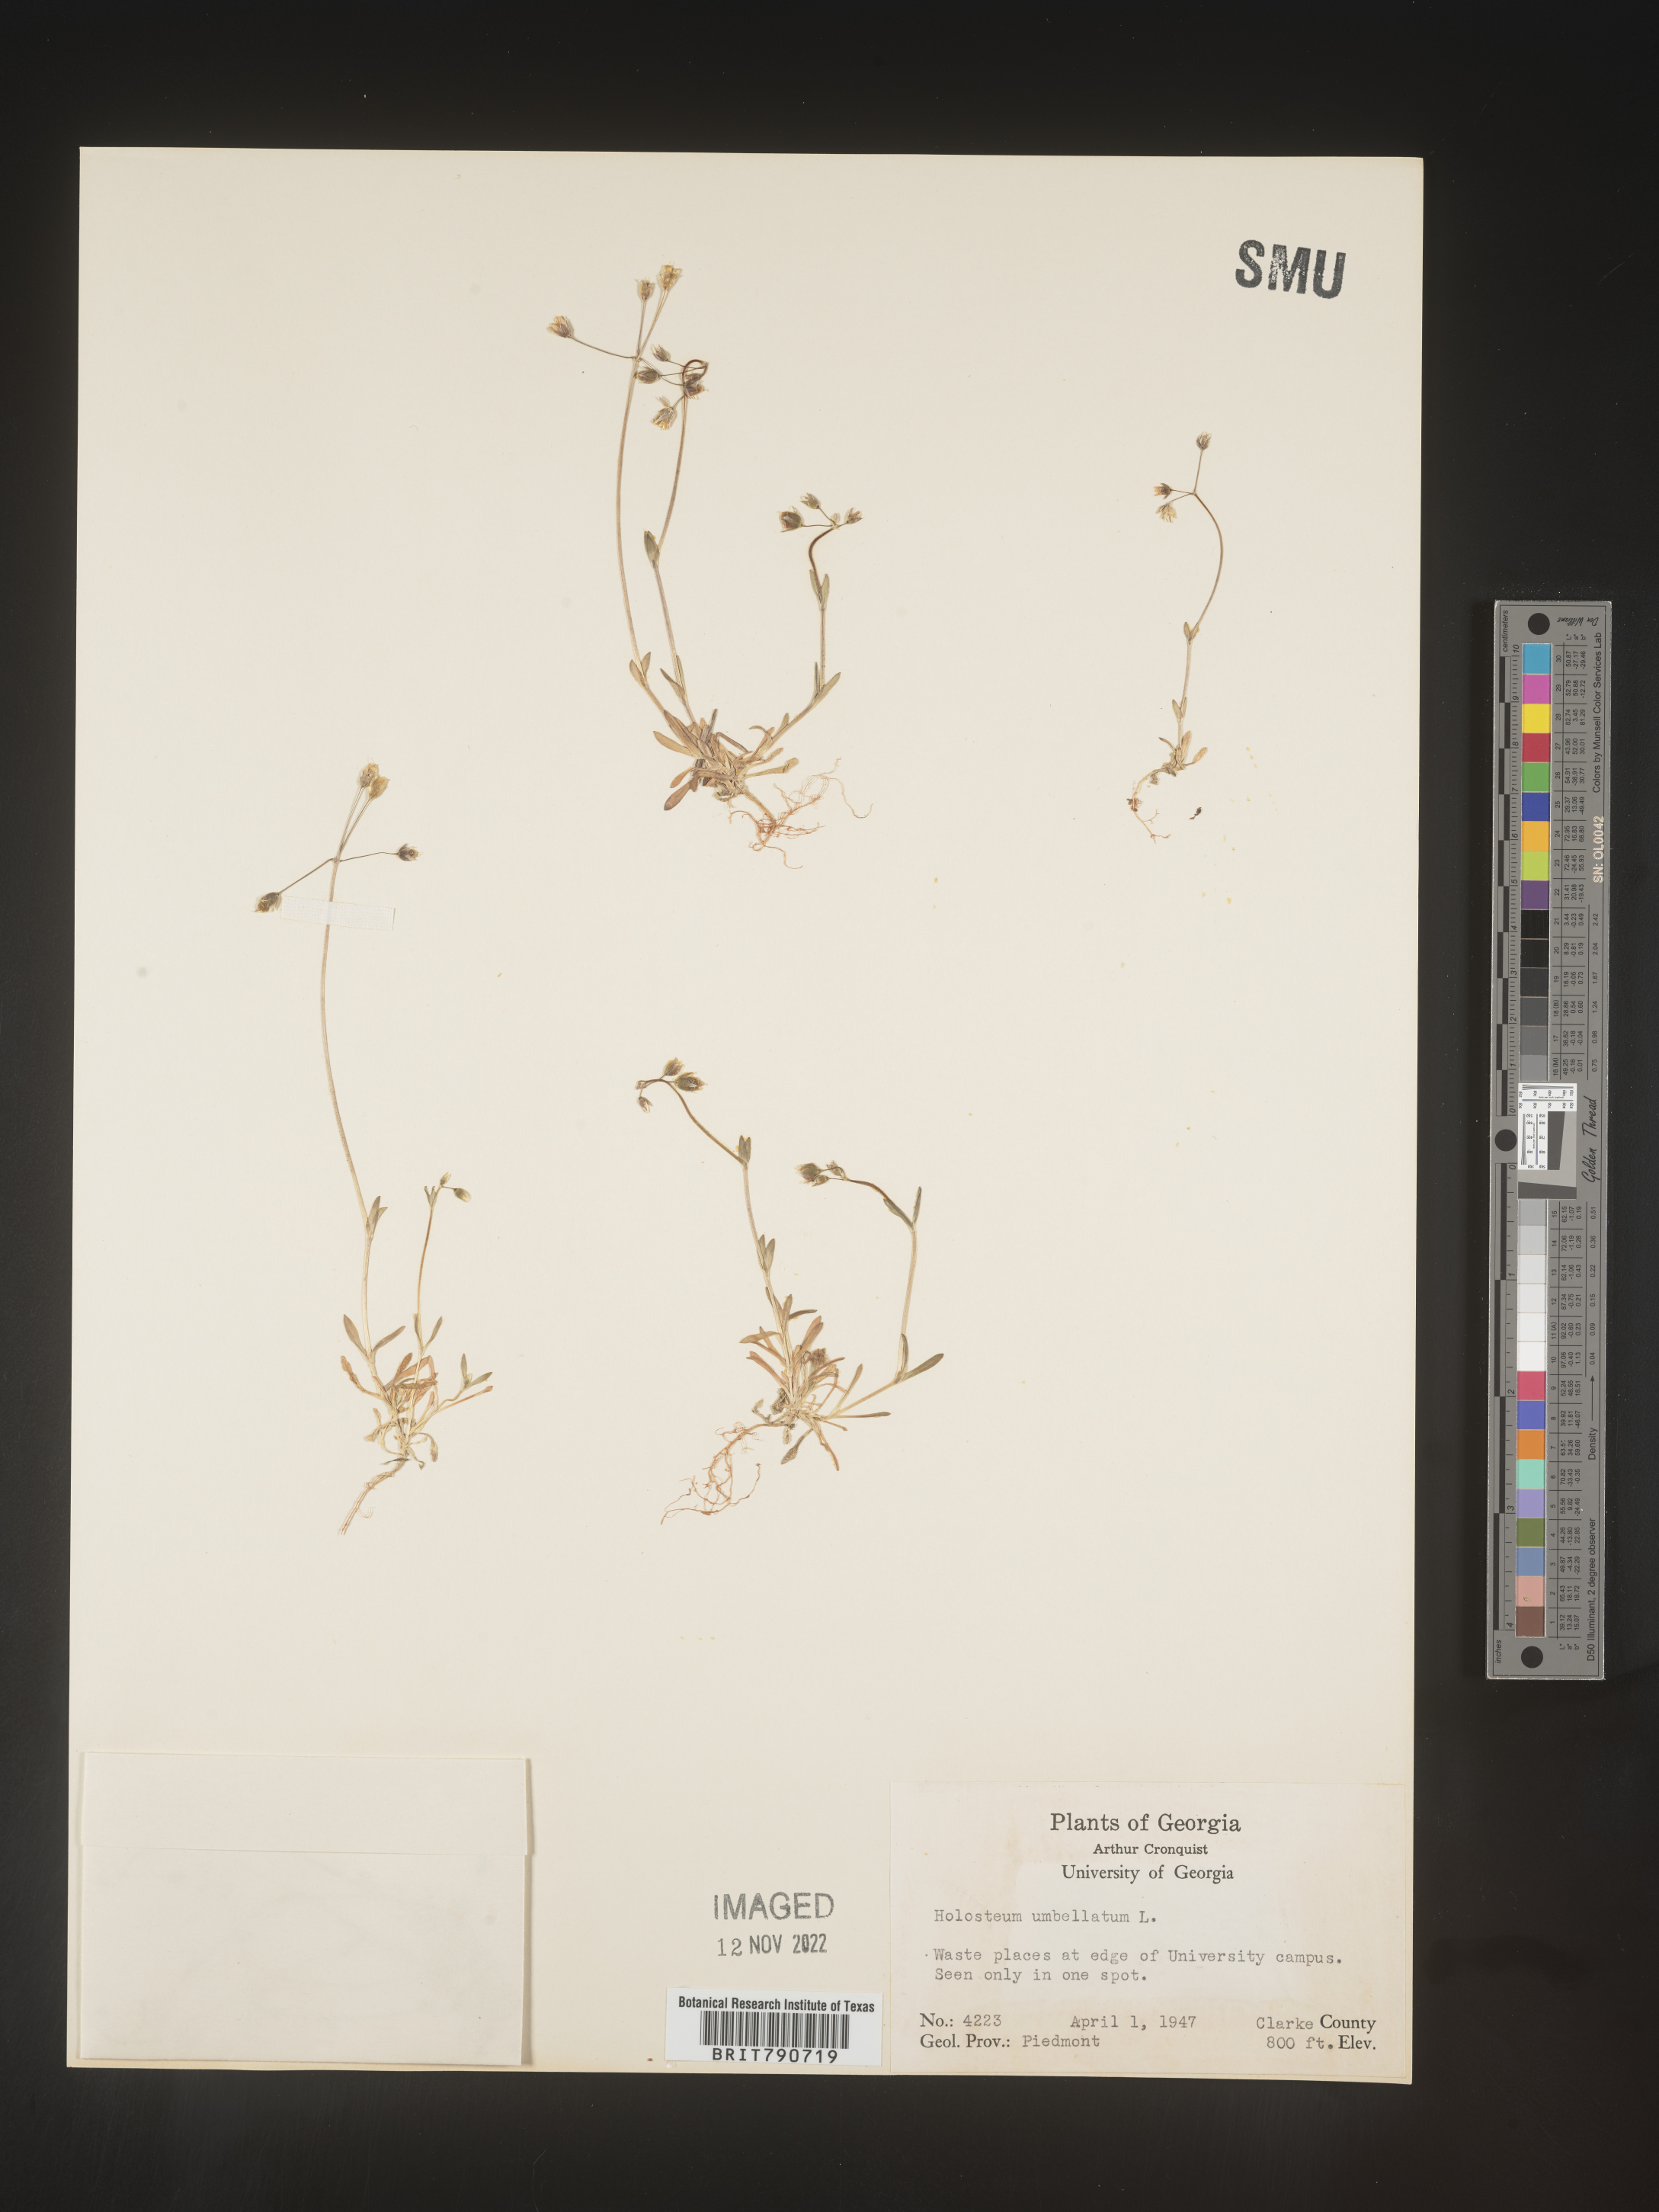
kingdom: Plantae
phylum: Tracheophyta
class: Magnoliopsida
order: Caryophyllales
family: Caryophyllaceae
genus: Holosteum
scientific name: Holosteum
